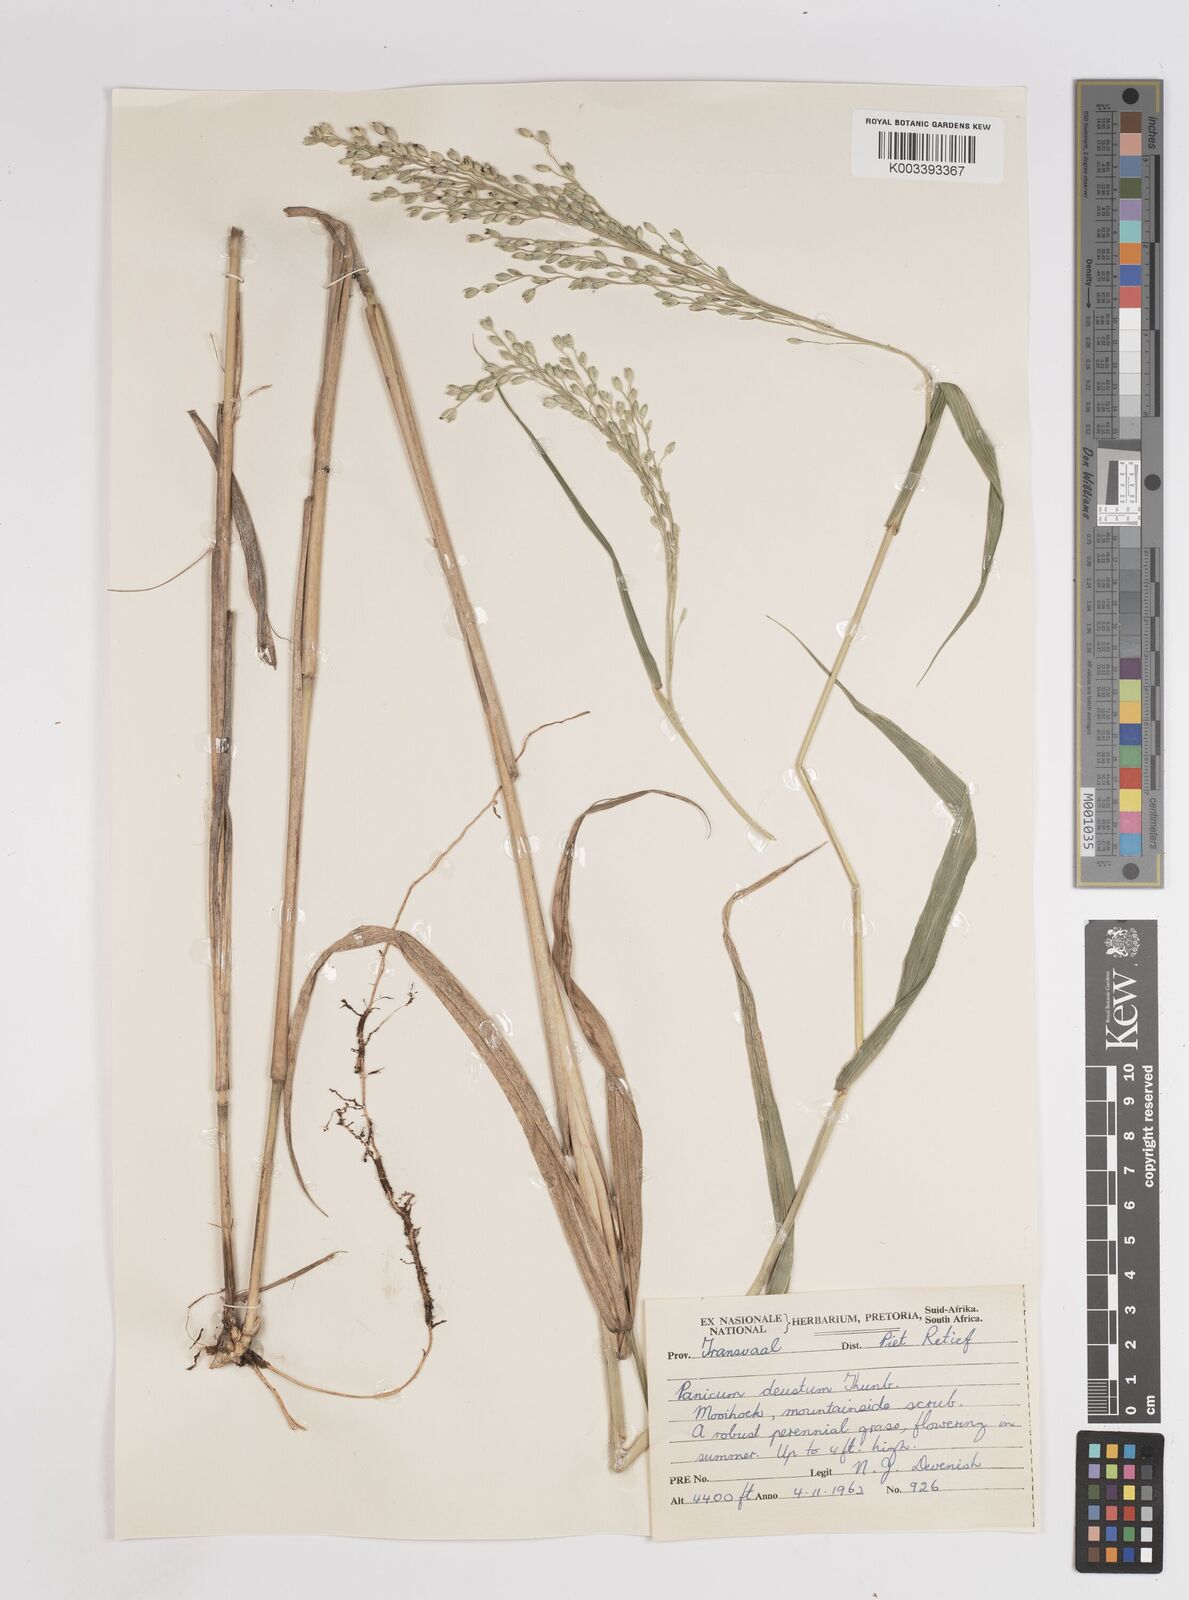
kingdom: Plantae
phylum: Tracheophyta
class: Liliopsida
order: Poales
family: Poaceae
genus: Panicum
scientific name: Panicum deustum
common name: Reed panicum
